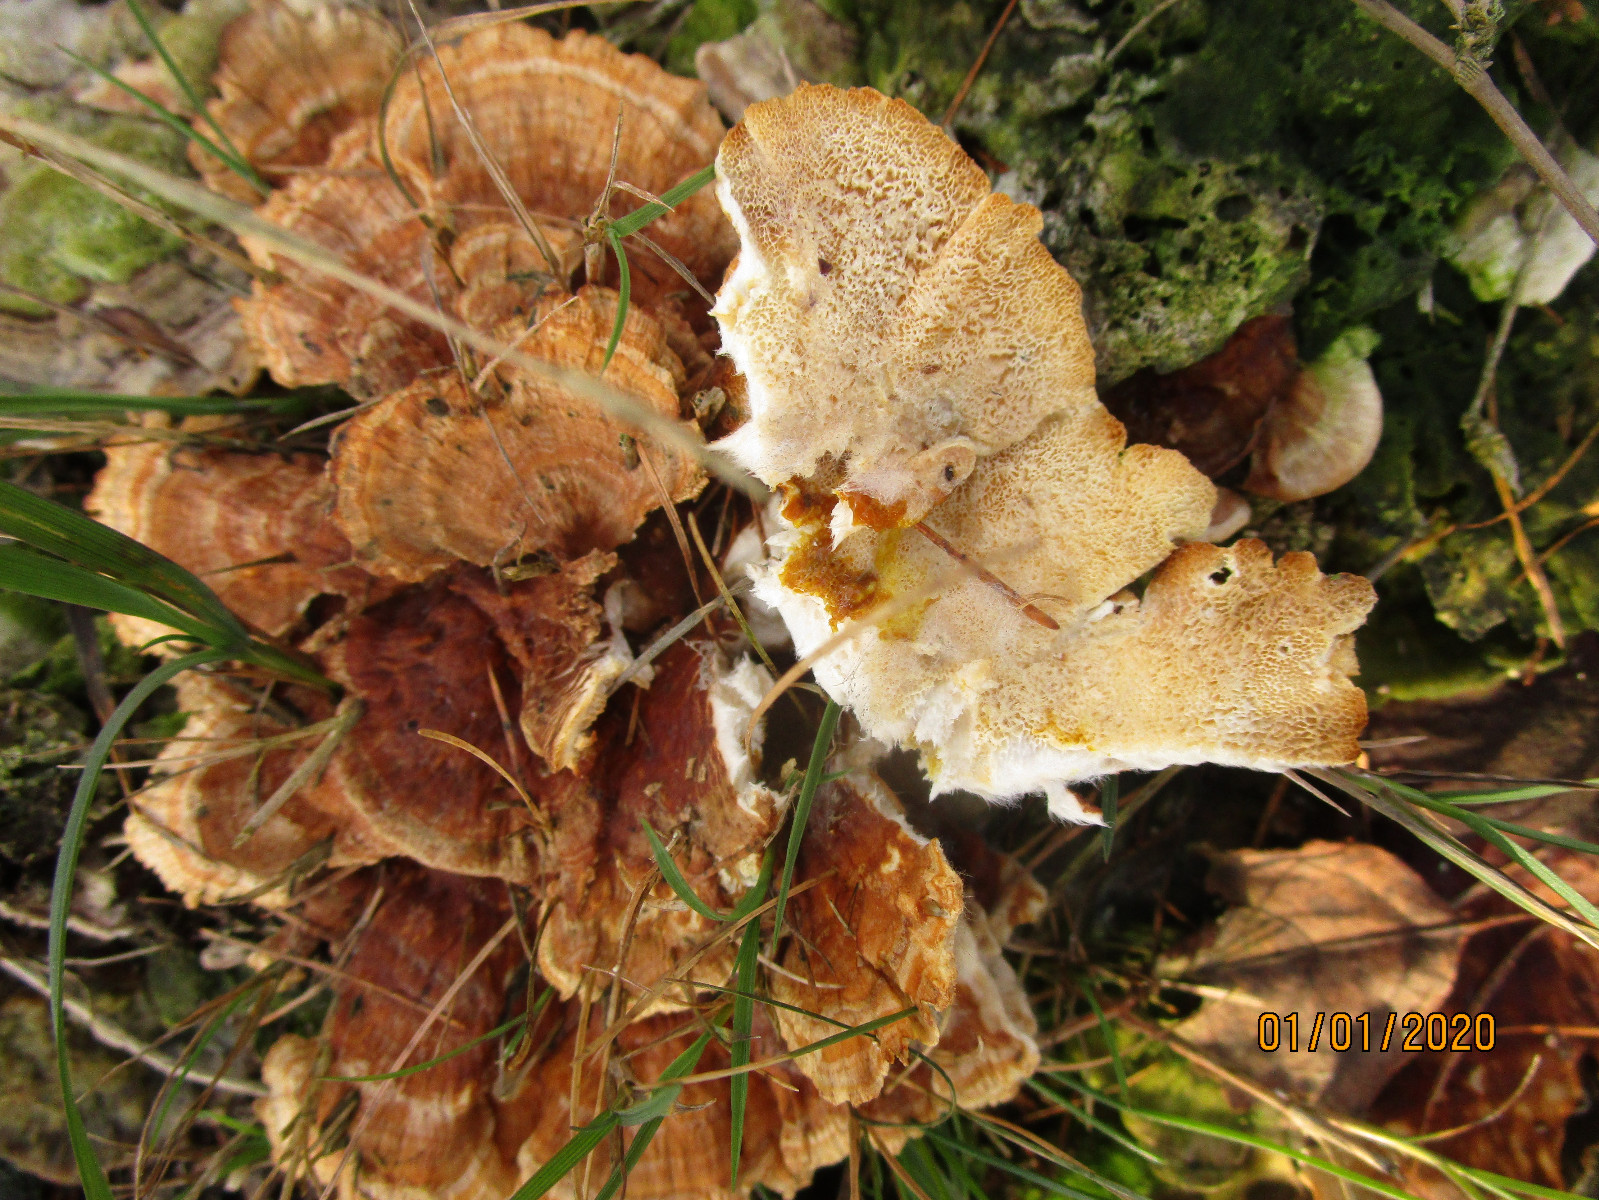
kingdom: Fungi
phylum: Basidiomycota
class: Agaricomycetes
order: Polyporales
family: Polyporaceae
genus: Trametes
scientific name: Trametes ochracea
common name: bæltet læderporesvamp
